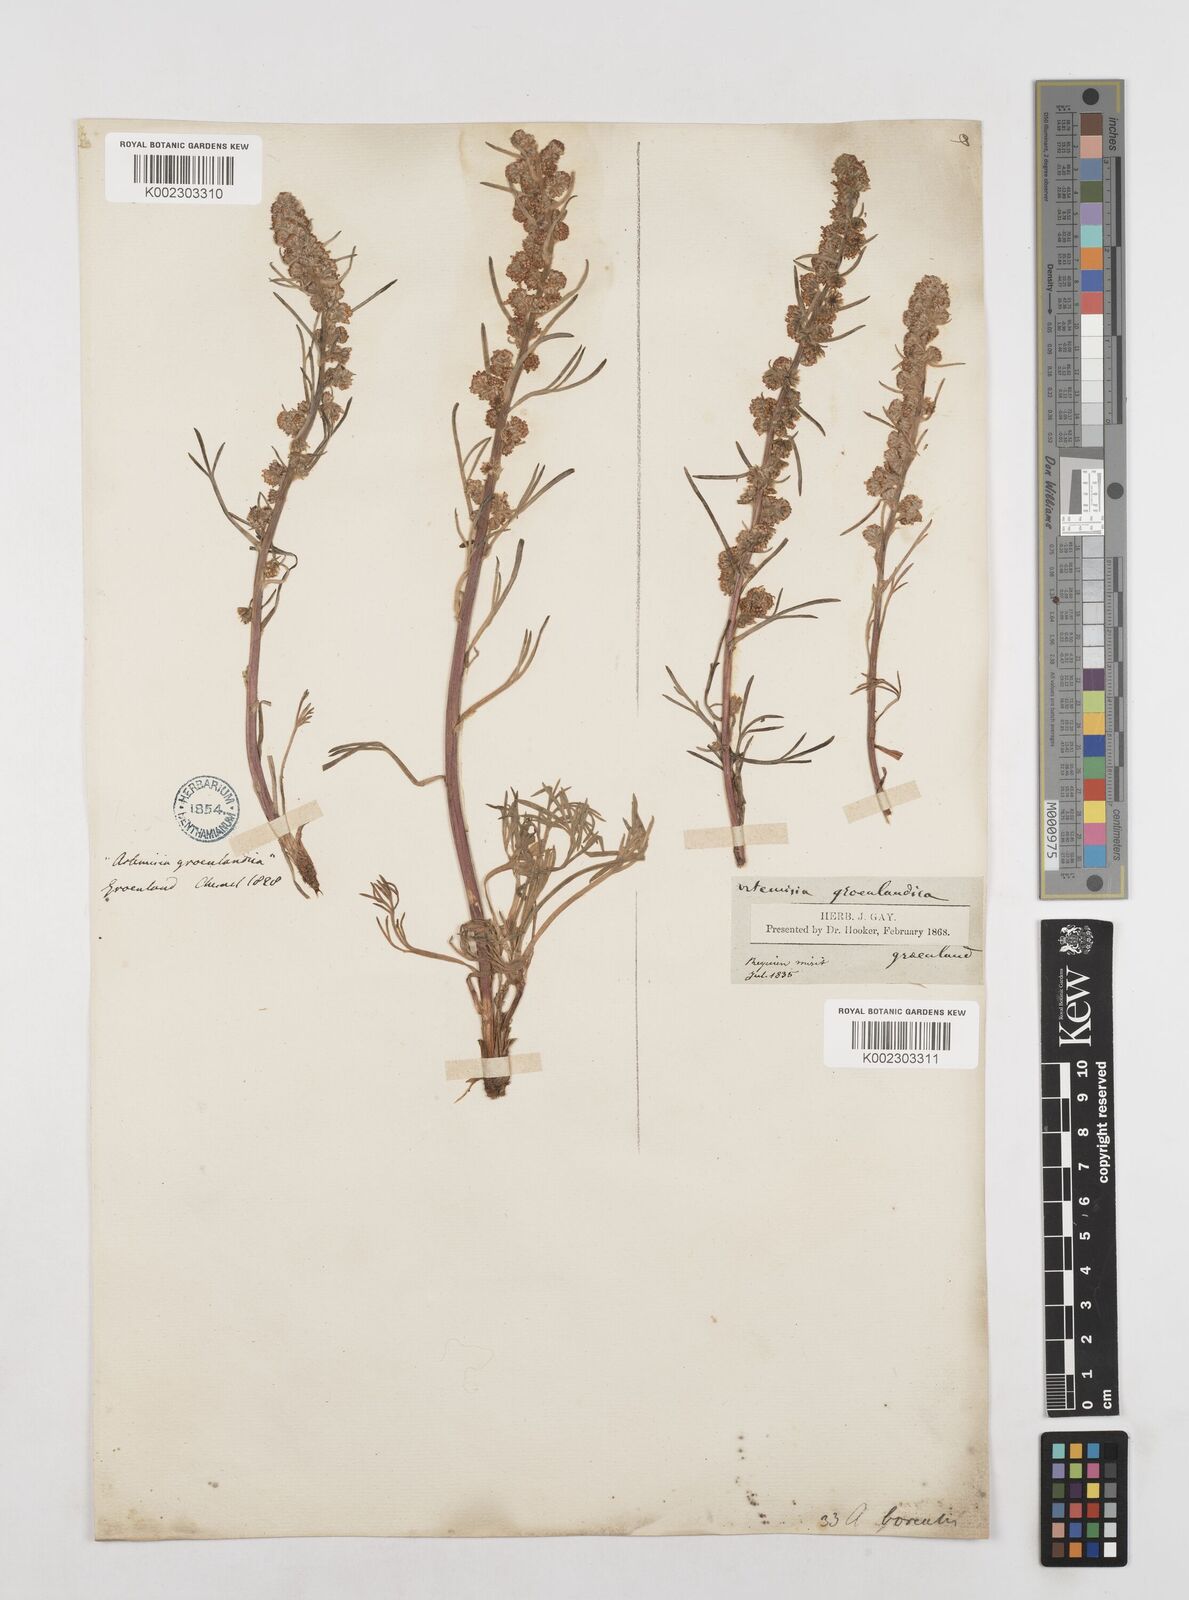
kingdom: Plantae
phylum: Tracheophyta
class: Magnoliopsida
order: Asterales
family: Asteraceae
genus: Artemisia
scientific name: Artemisia borealis
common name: Boreal sage
